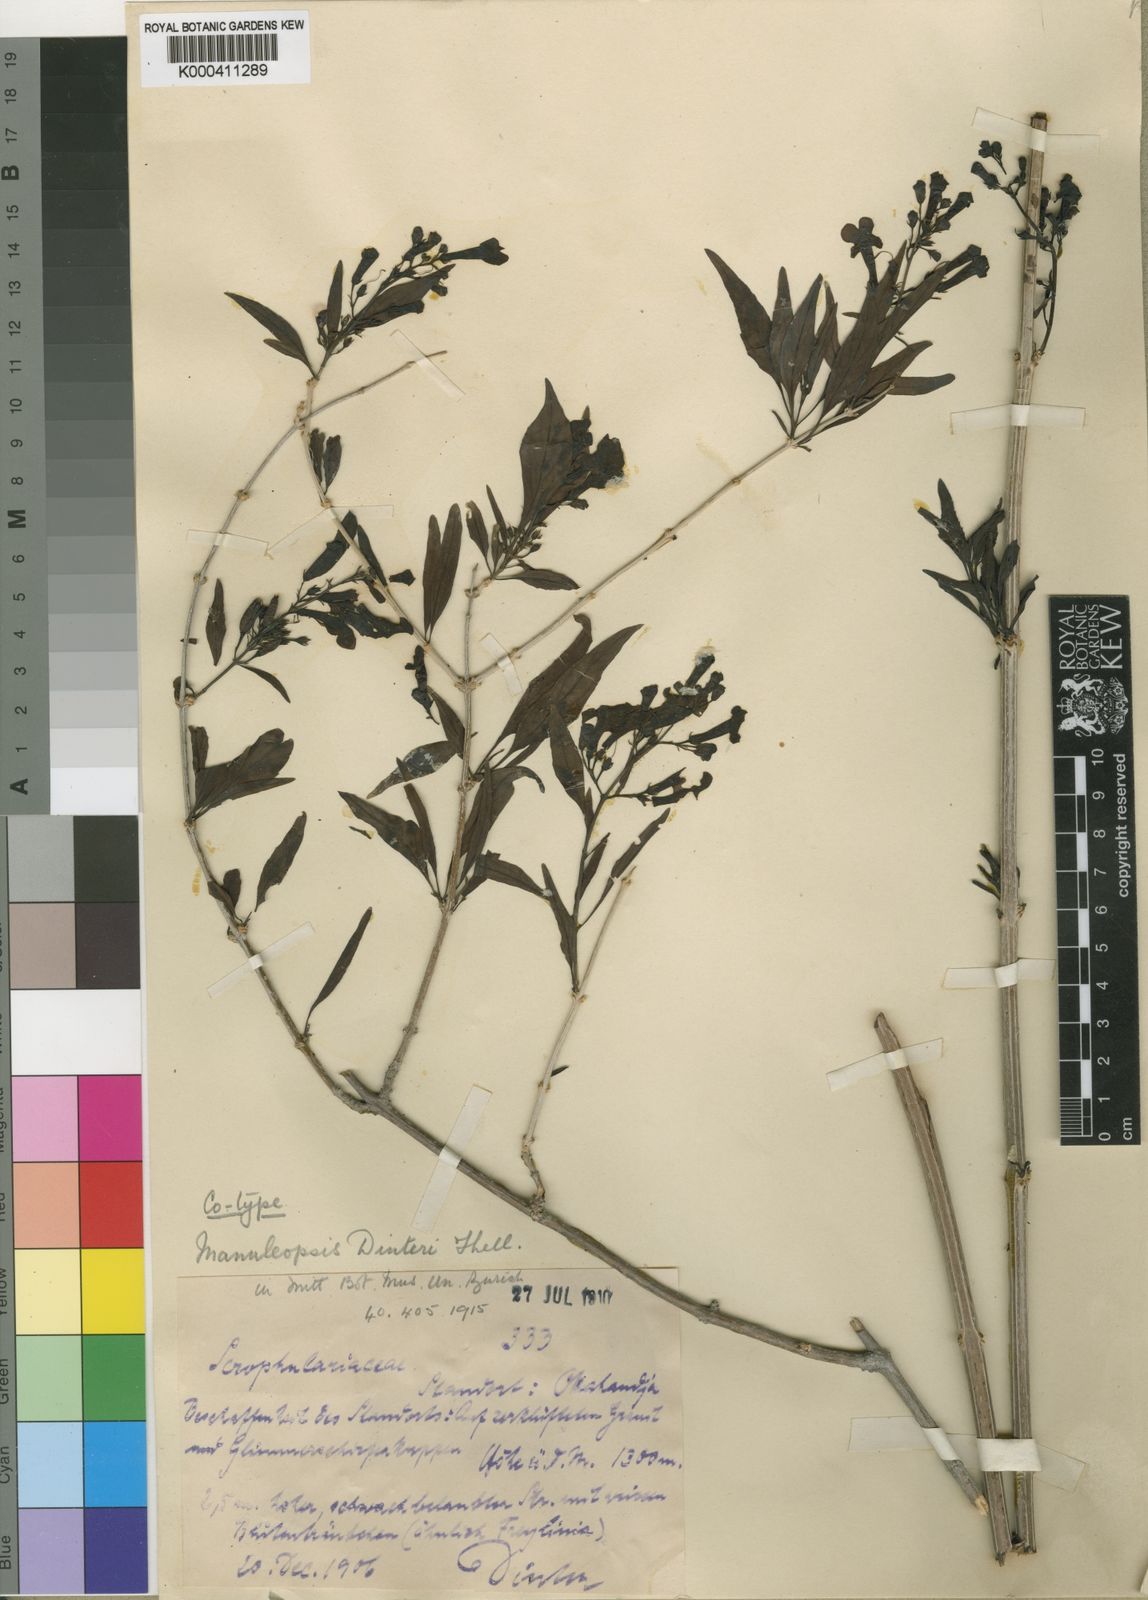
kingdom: Plantae
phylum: Tracheophyta
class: Magnoliopsida
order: Lamiales
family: Scrophulariaceae
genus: Manuleopsis
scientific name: Manuleopsis dinteri
